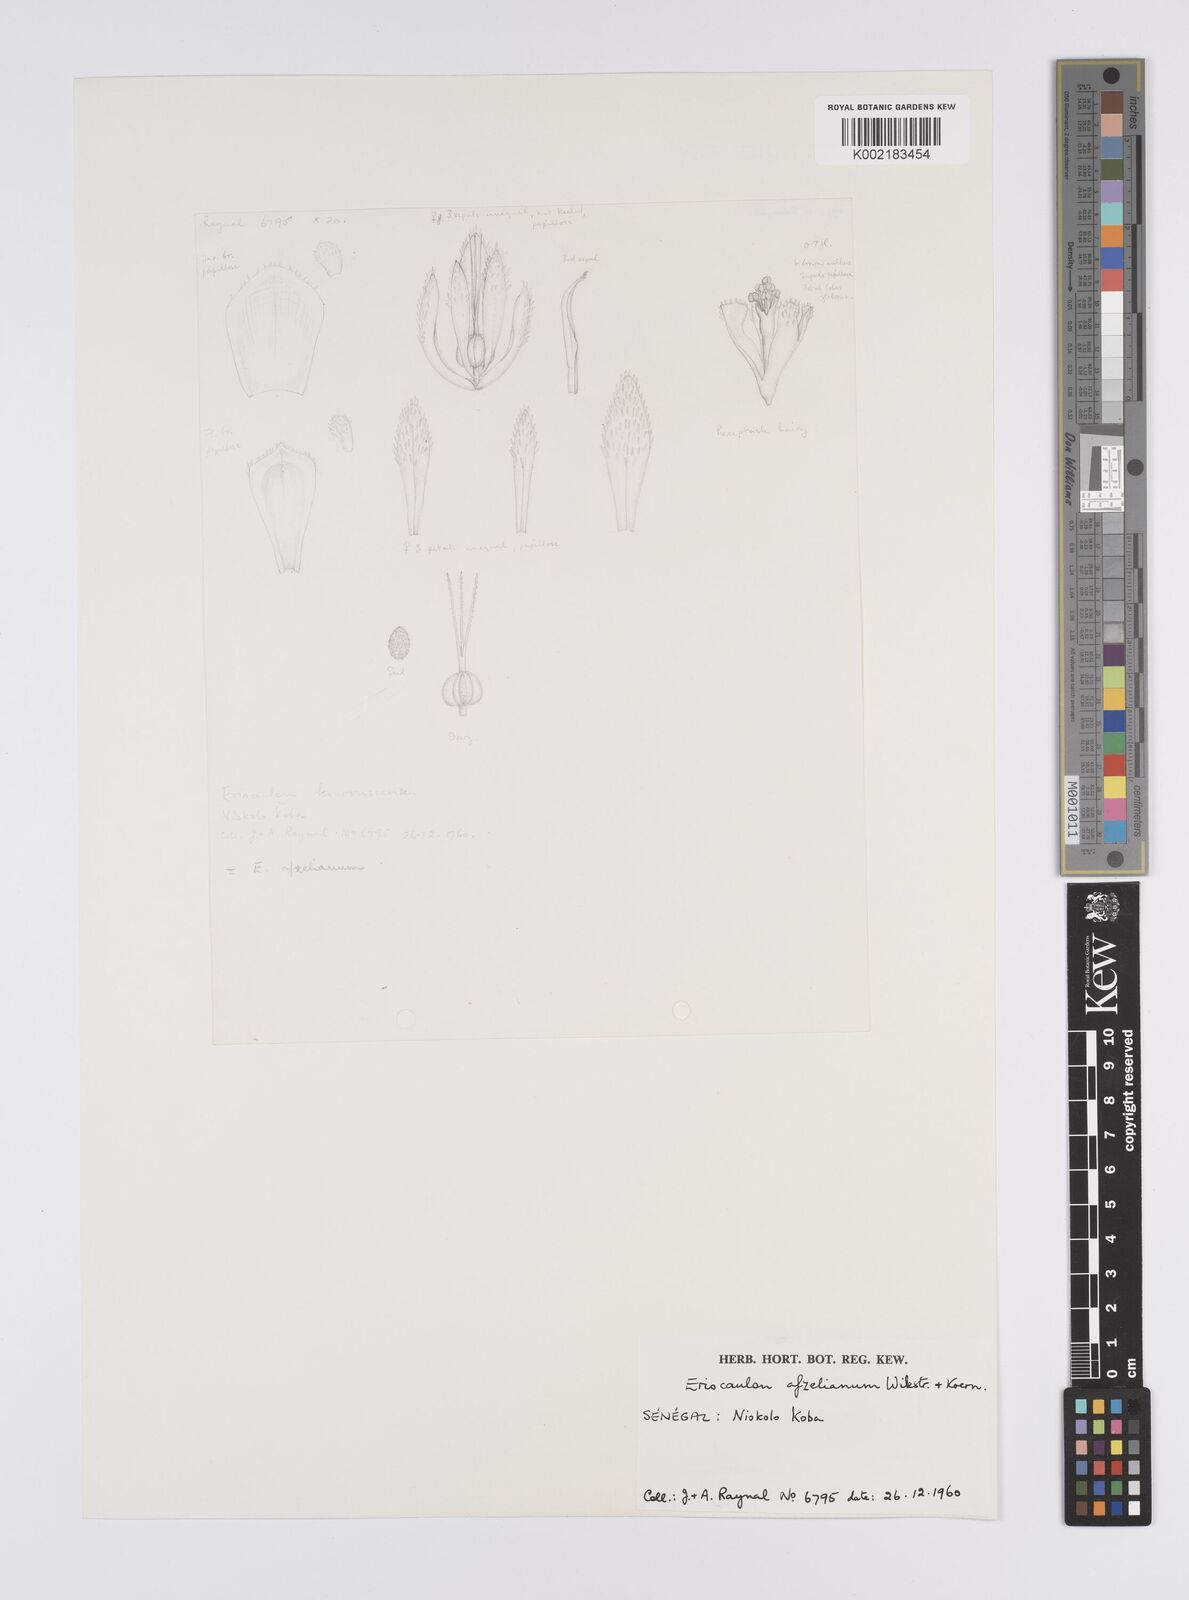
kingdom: Plantae
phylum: Tracheophyta
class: Liliopsida
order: Poales
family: Eriocaulaceae
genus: Eriocaulon
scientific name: Eriocaulon afzelianum
